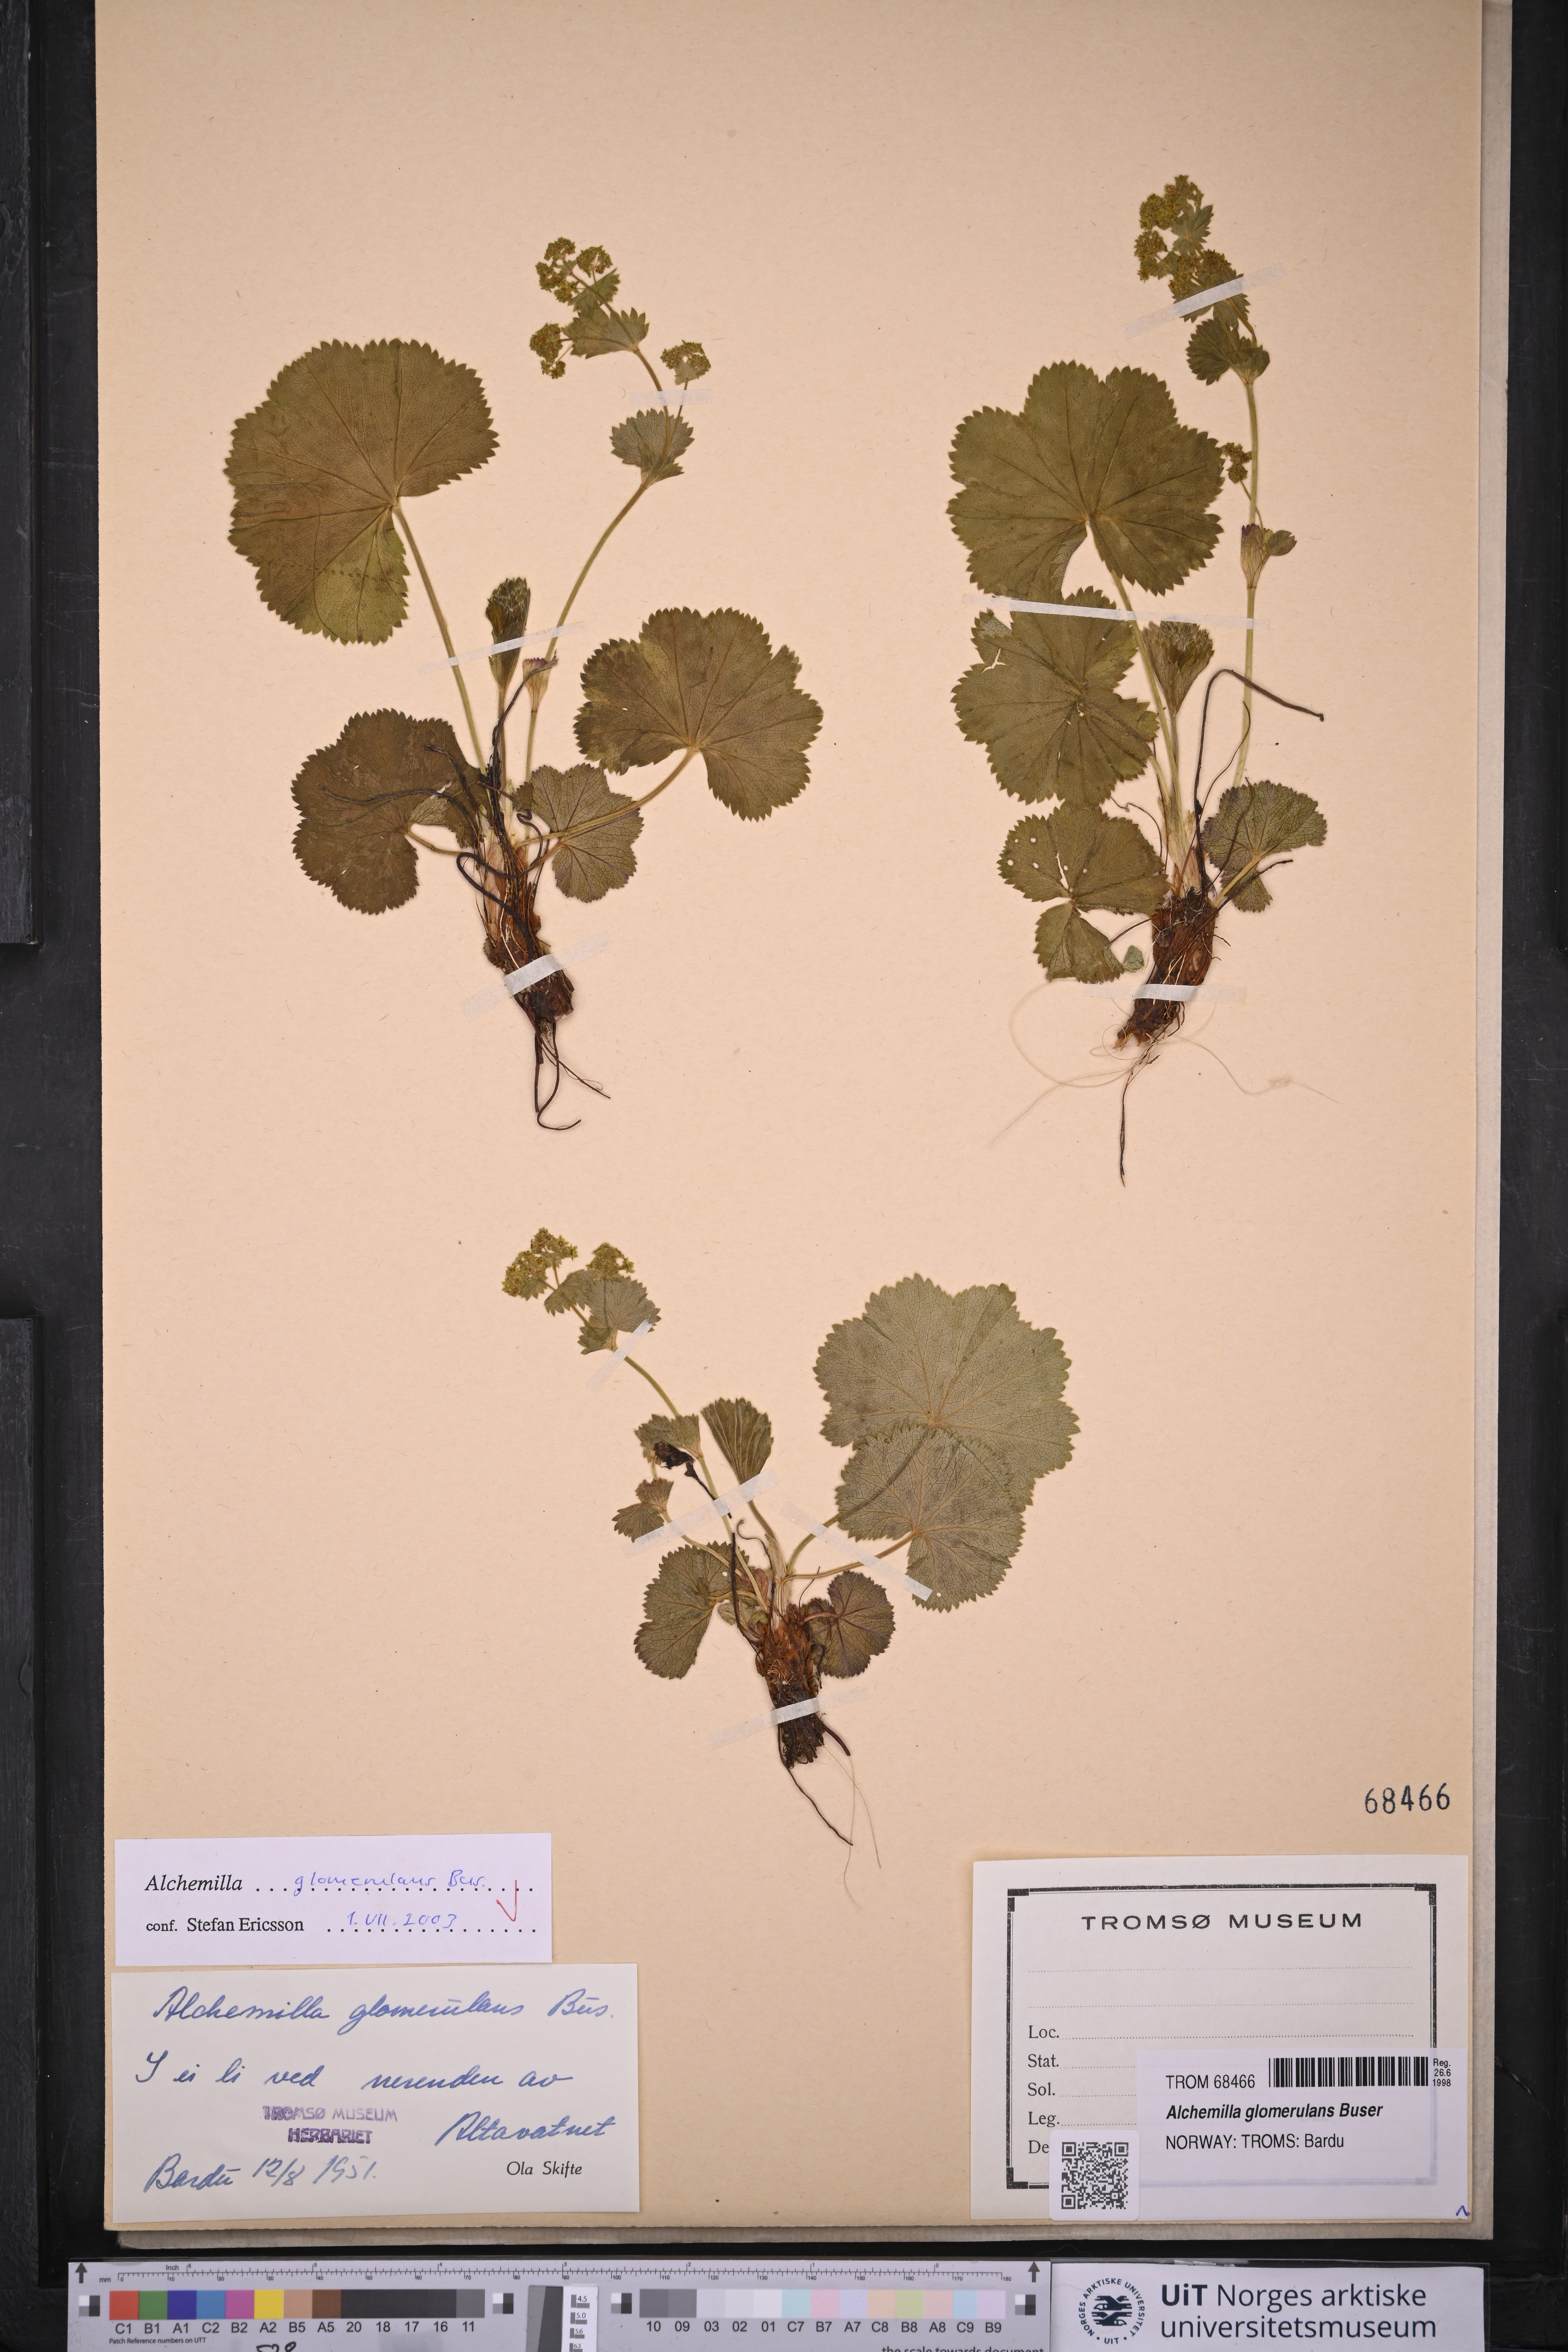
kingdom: Plantae
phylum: Tracheophyta
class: Magnoliopsida
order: Rosales
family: Rosaceae
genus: Alchemilla
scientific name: Alchemilla glomerulans
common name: Clustered lady's mantle
